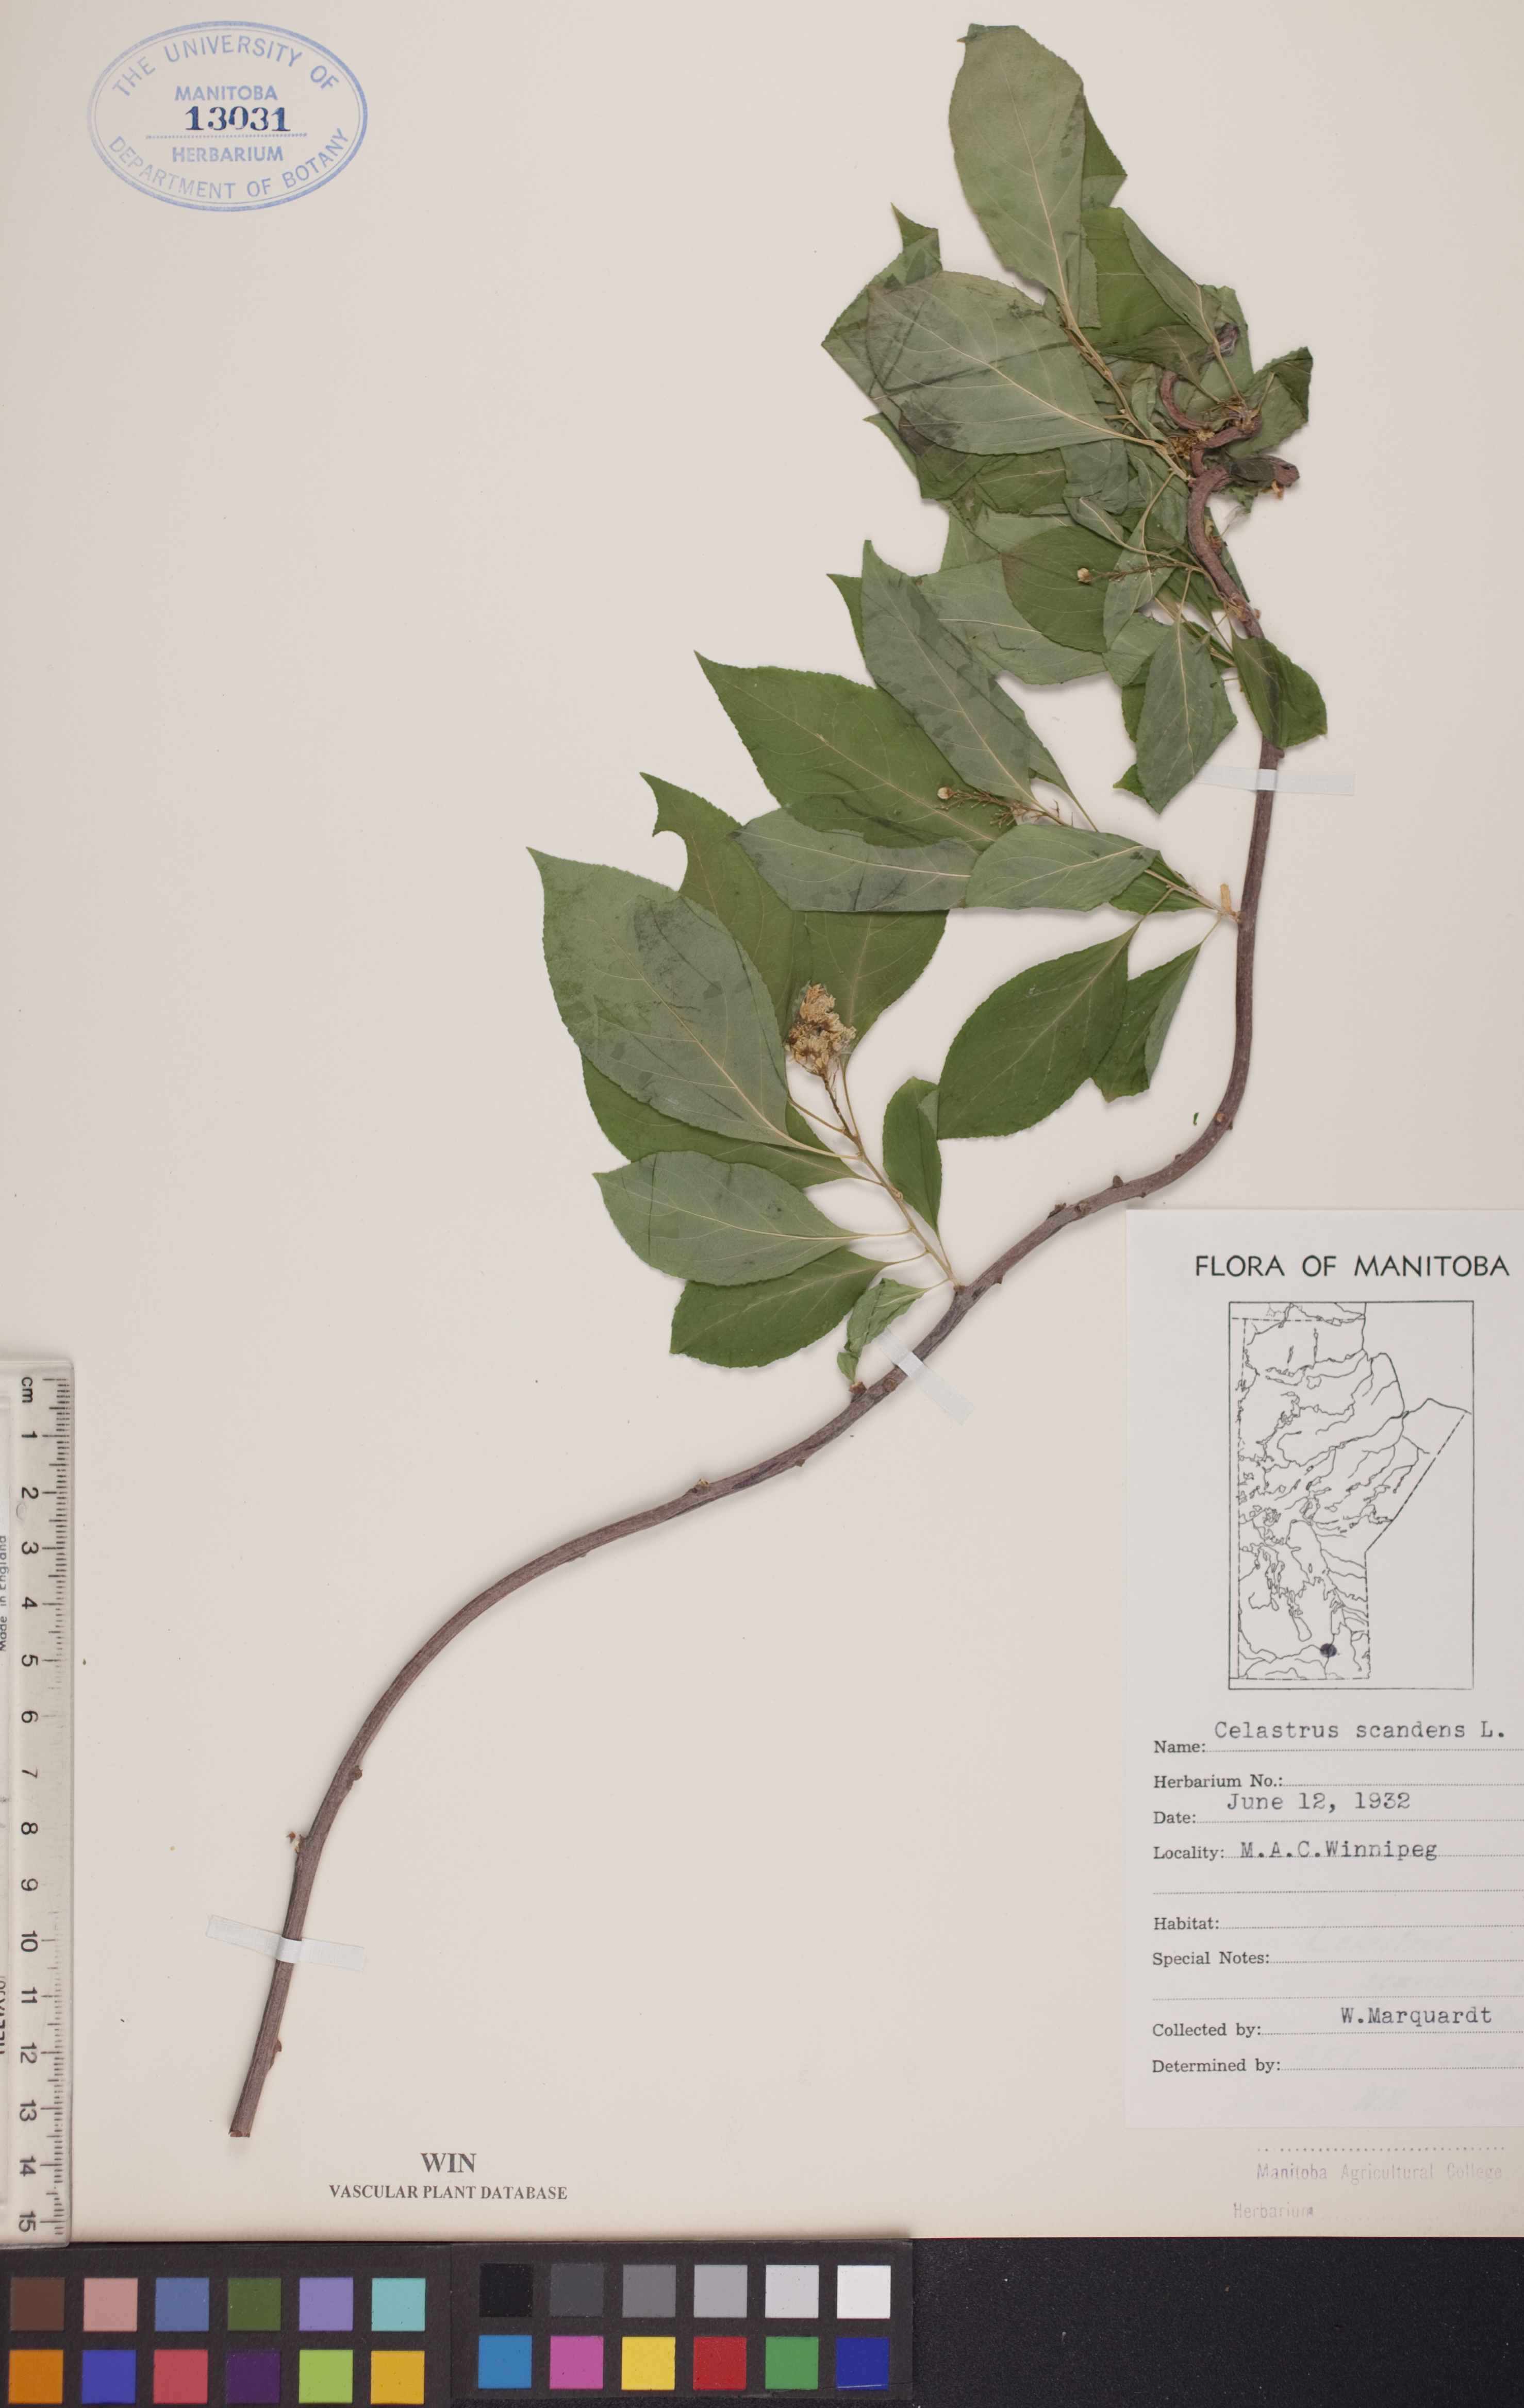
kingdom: Plantae
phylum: Tracheophyta
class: Magnoliopsida
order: Celastrales
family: Celastraceae
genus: Celastrus
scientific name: Celastrus scandens
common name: American bittersweet
